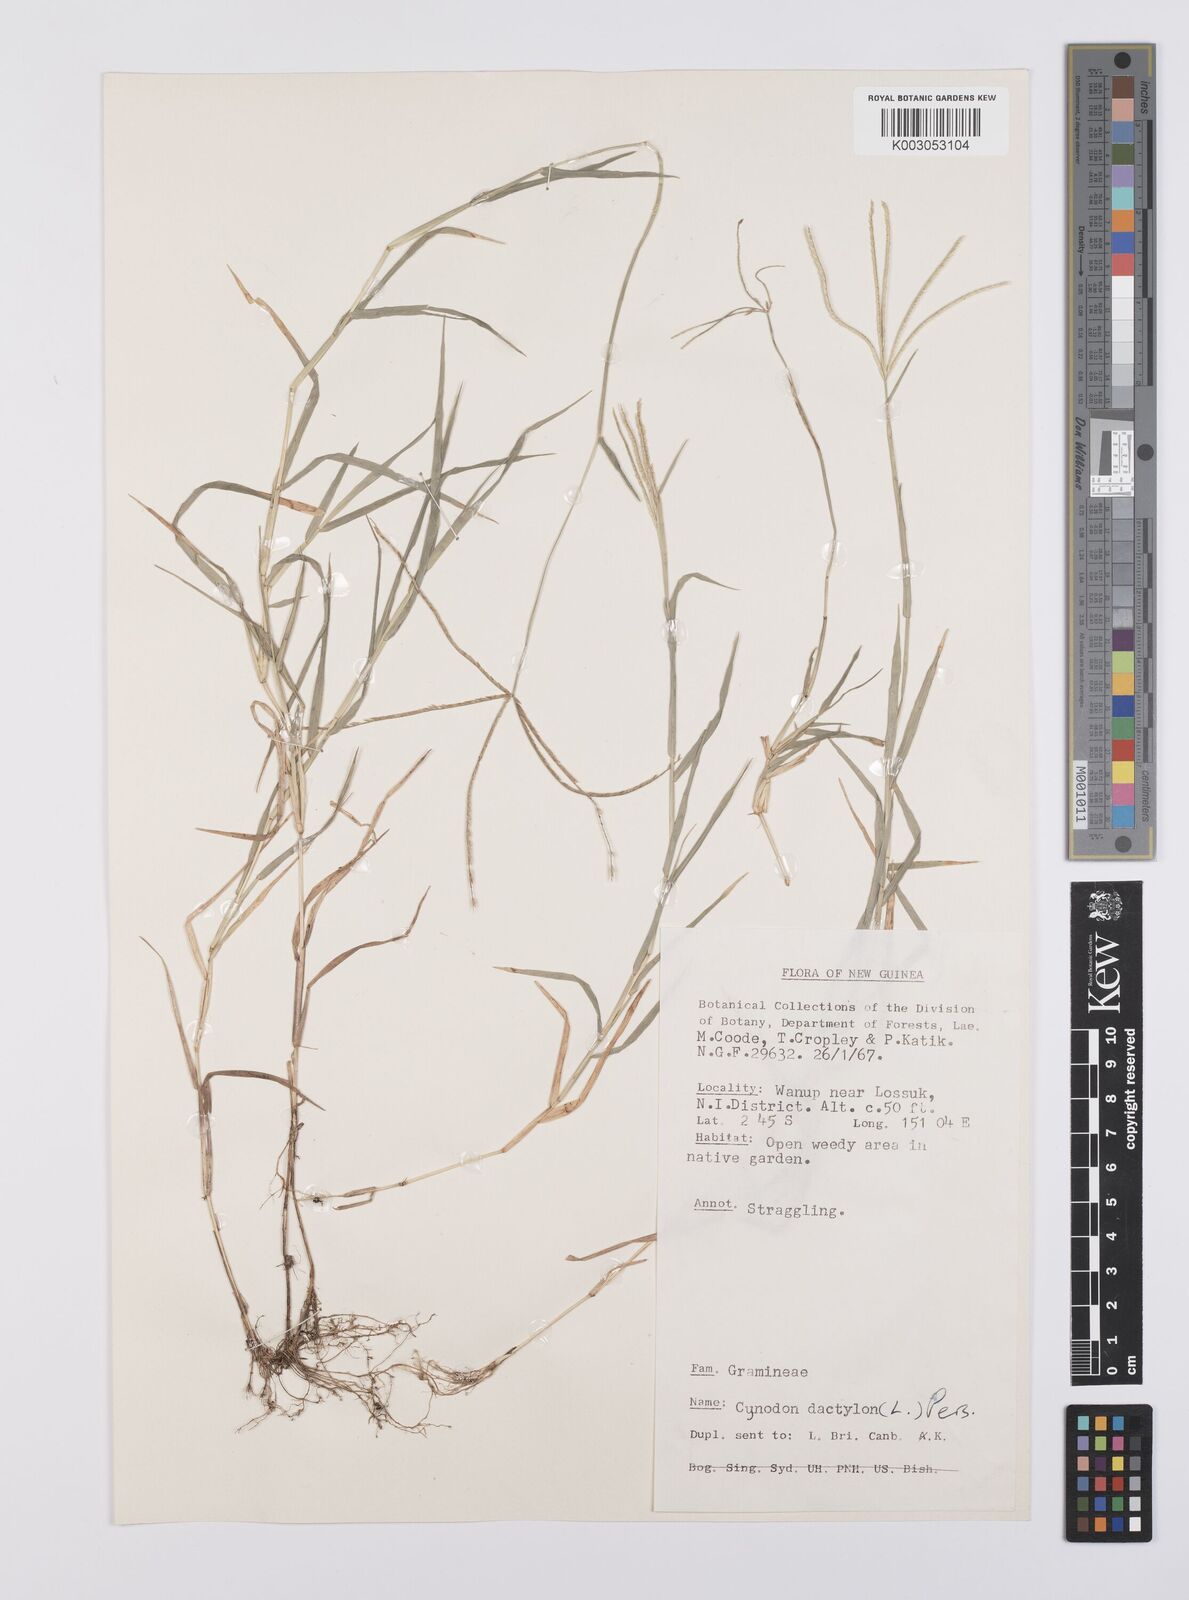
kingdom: Plantae
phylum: Tracheophyta
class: Liliopsida
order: Poales
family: Poaceae
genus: Cynodon
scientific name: Cynodon dactylon
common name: Bermuda grass
